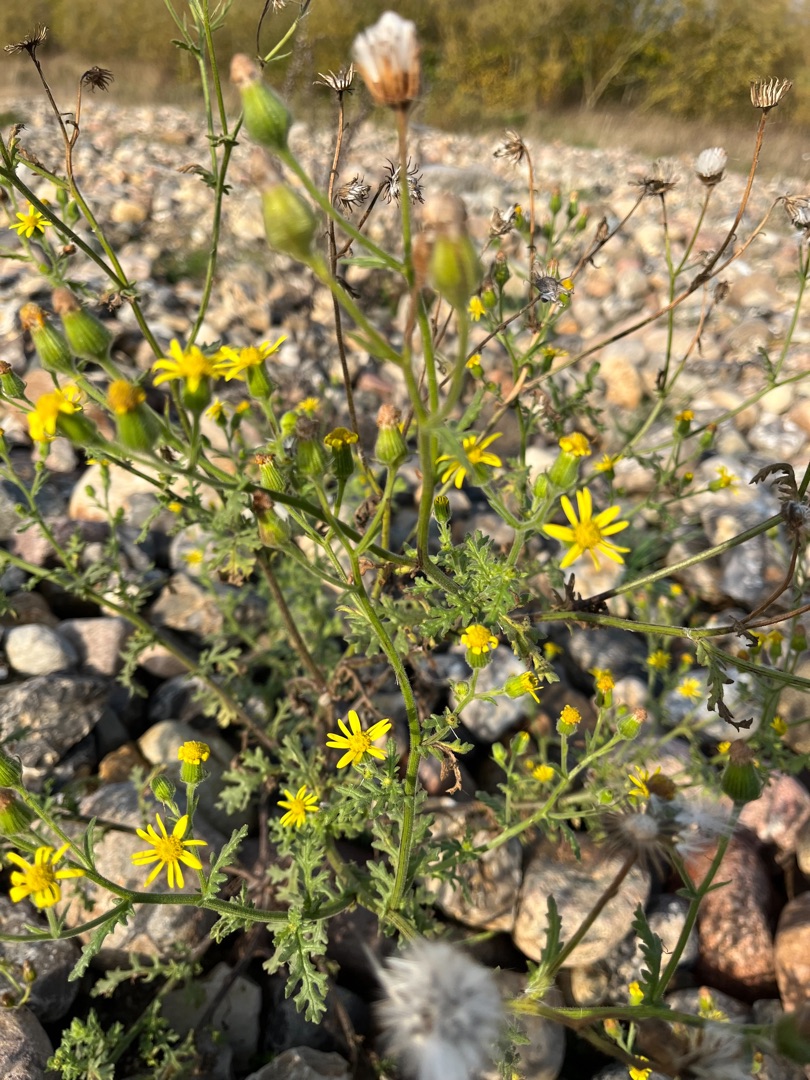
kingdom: Plantae
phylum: Tracheophyta
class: Magnoliopsida
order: Asterales
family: Asteraceae
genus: Senecio
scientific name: Senecio viscosus
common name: Klæbrig brandbæger
